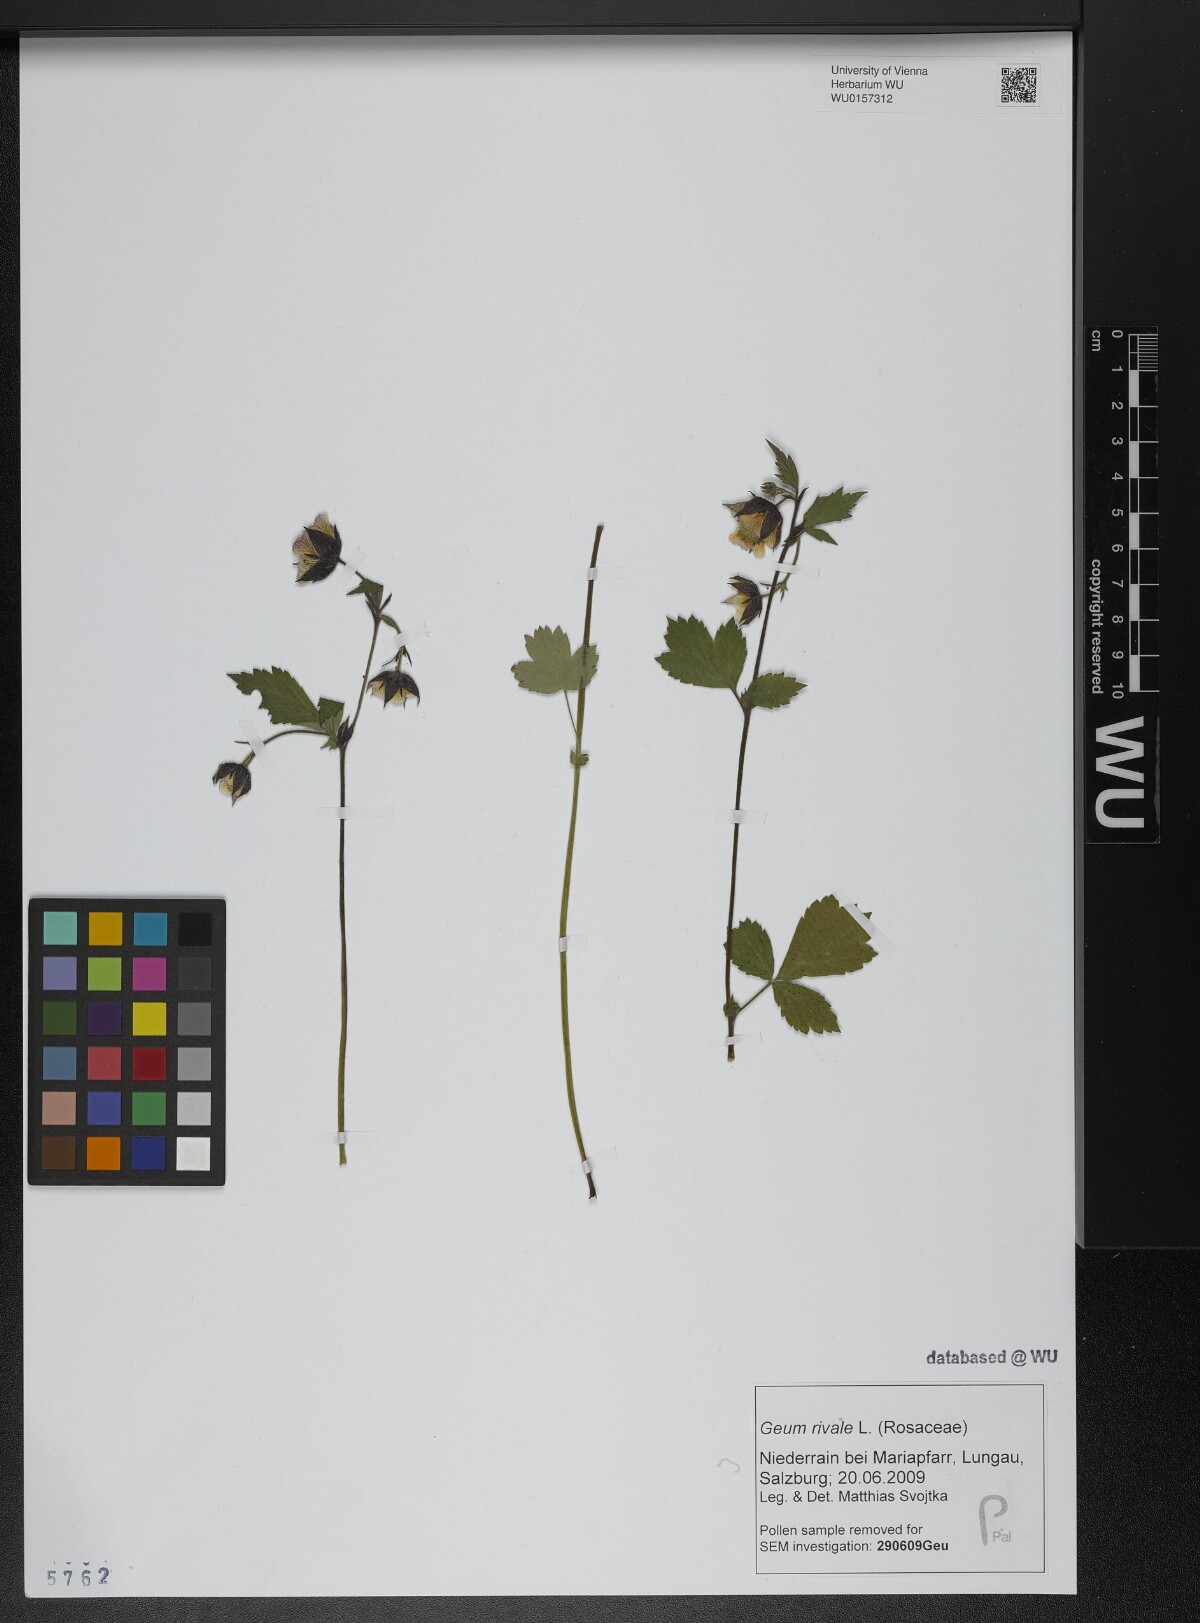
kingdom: Plantae
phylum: Tracheophyta
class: Magnoliopsida
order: Rosales
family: Rosaceae
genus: Geum
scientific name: Geum rivale
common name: Water avens
